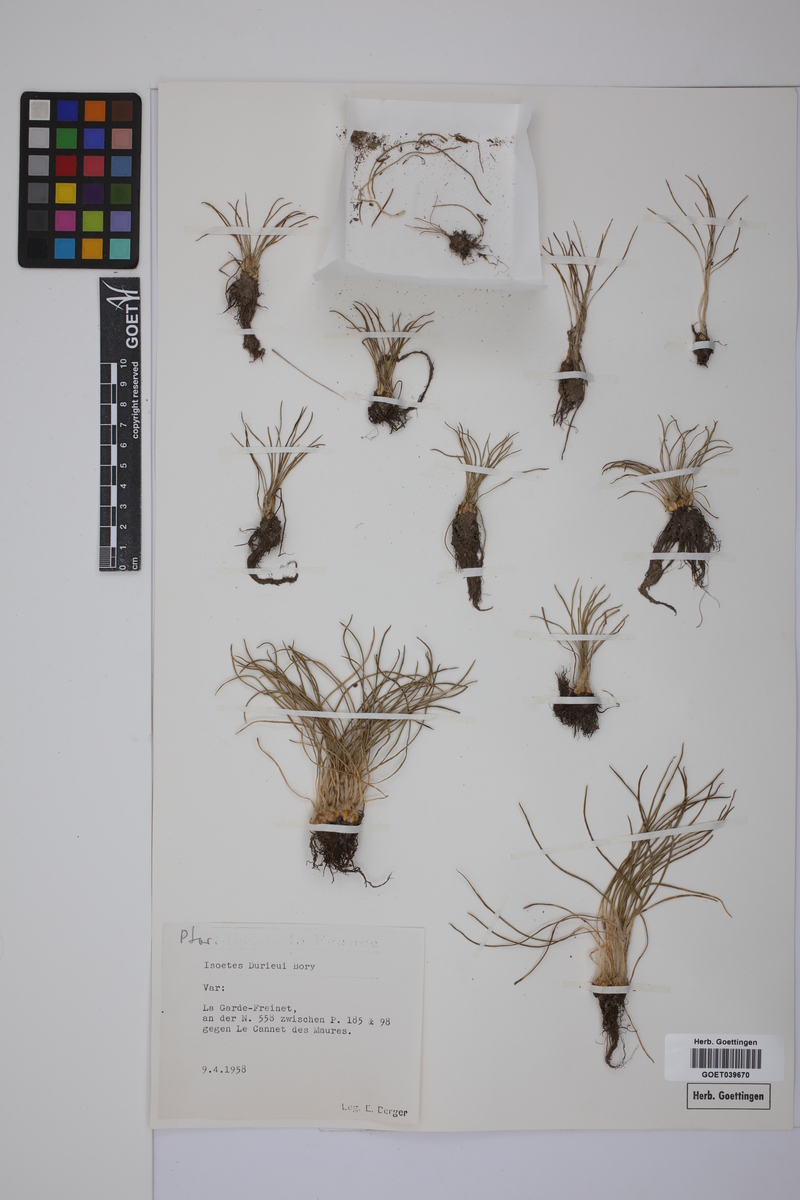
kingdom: Plantae
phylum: Tracheophyta
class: Lycopodiopsida
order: Isoetales
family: Isoetaceae
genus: Isoetes
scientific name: Isoetes duriei
